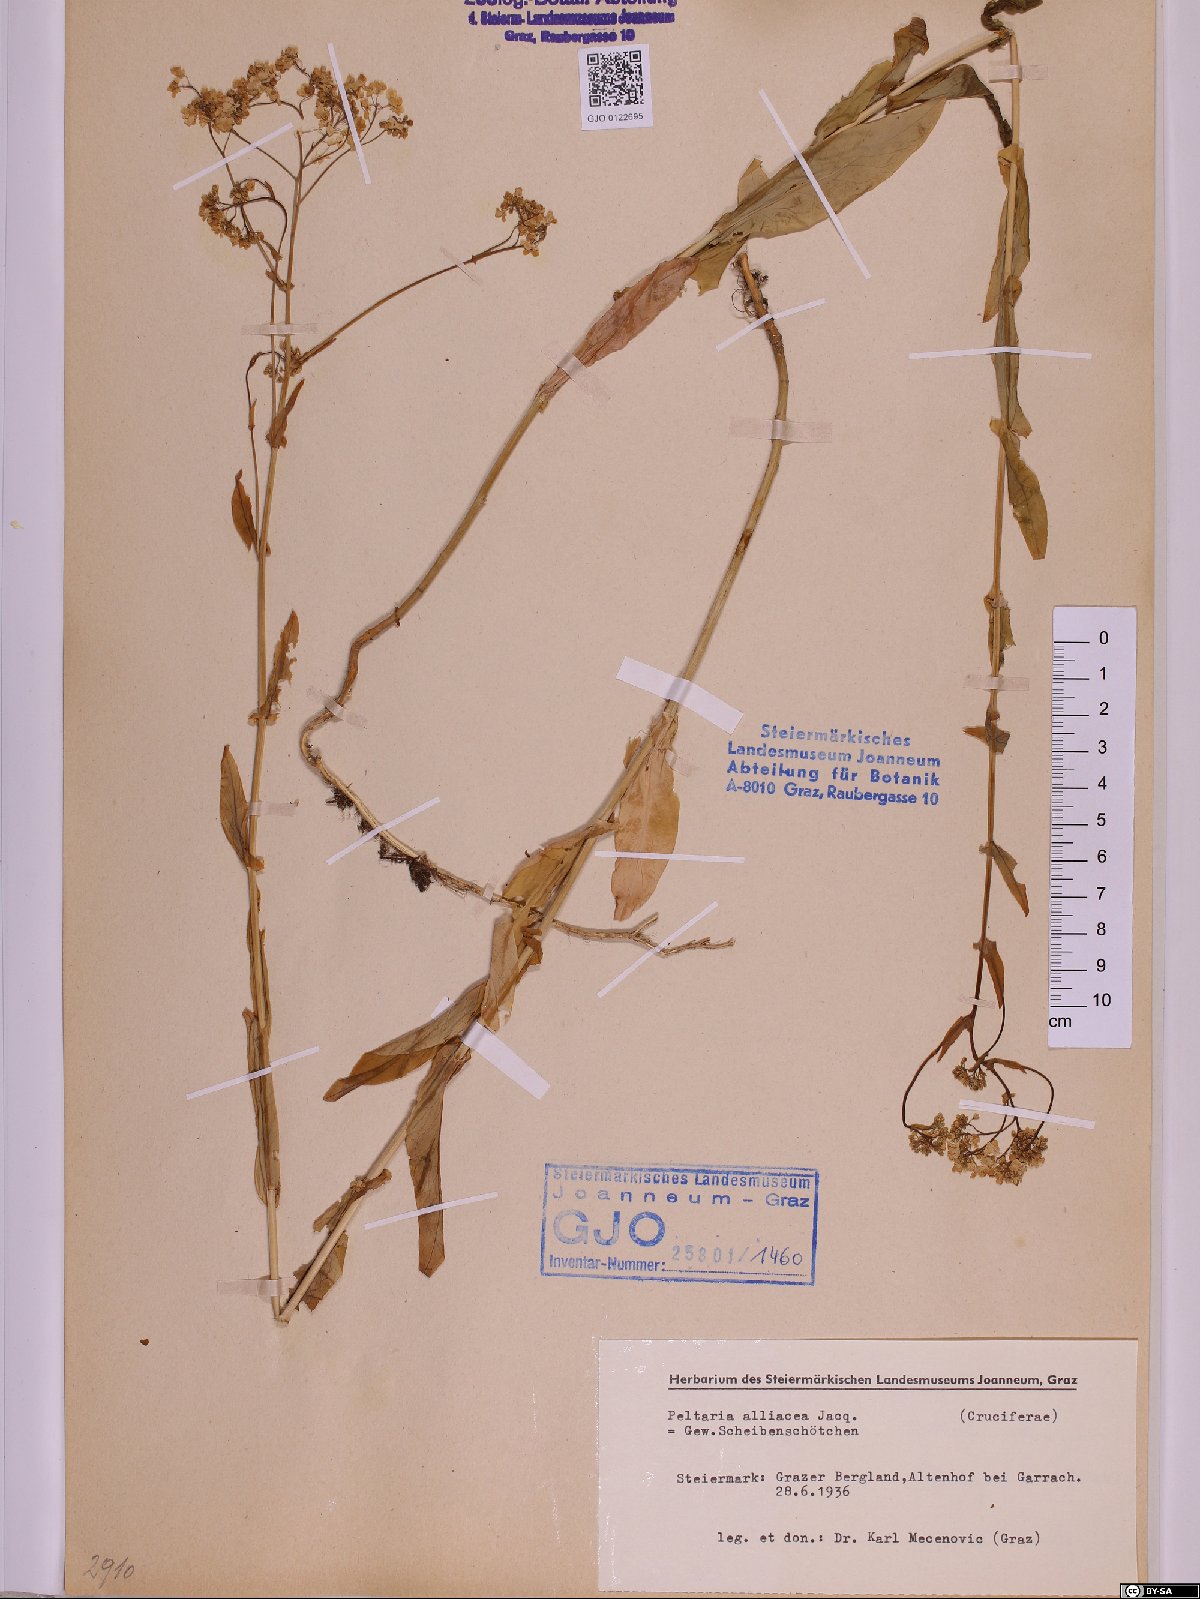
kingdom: Plantae
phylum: Tracheophyta
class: Magnoliopsida
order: Brassicales
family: Brassicaceae
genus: Peltaria
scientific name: Peltaria alliacea
